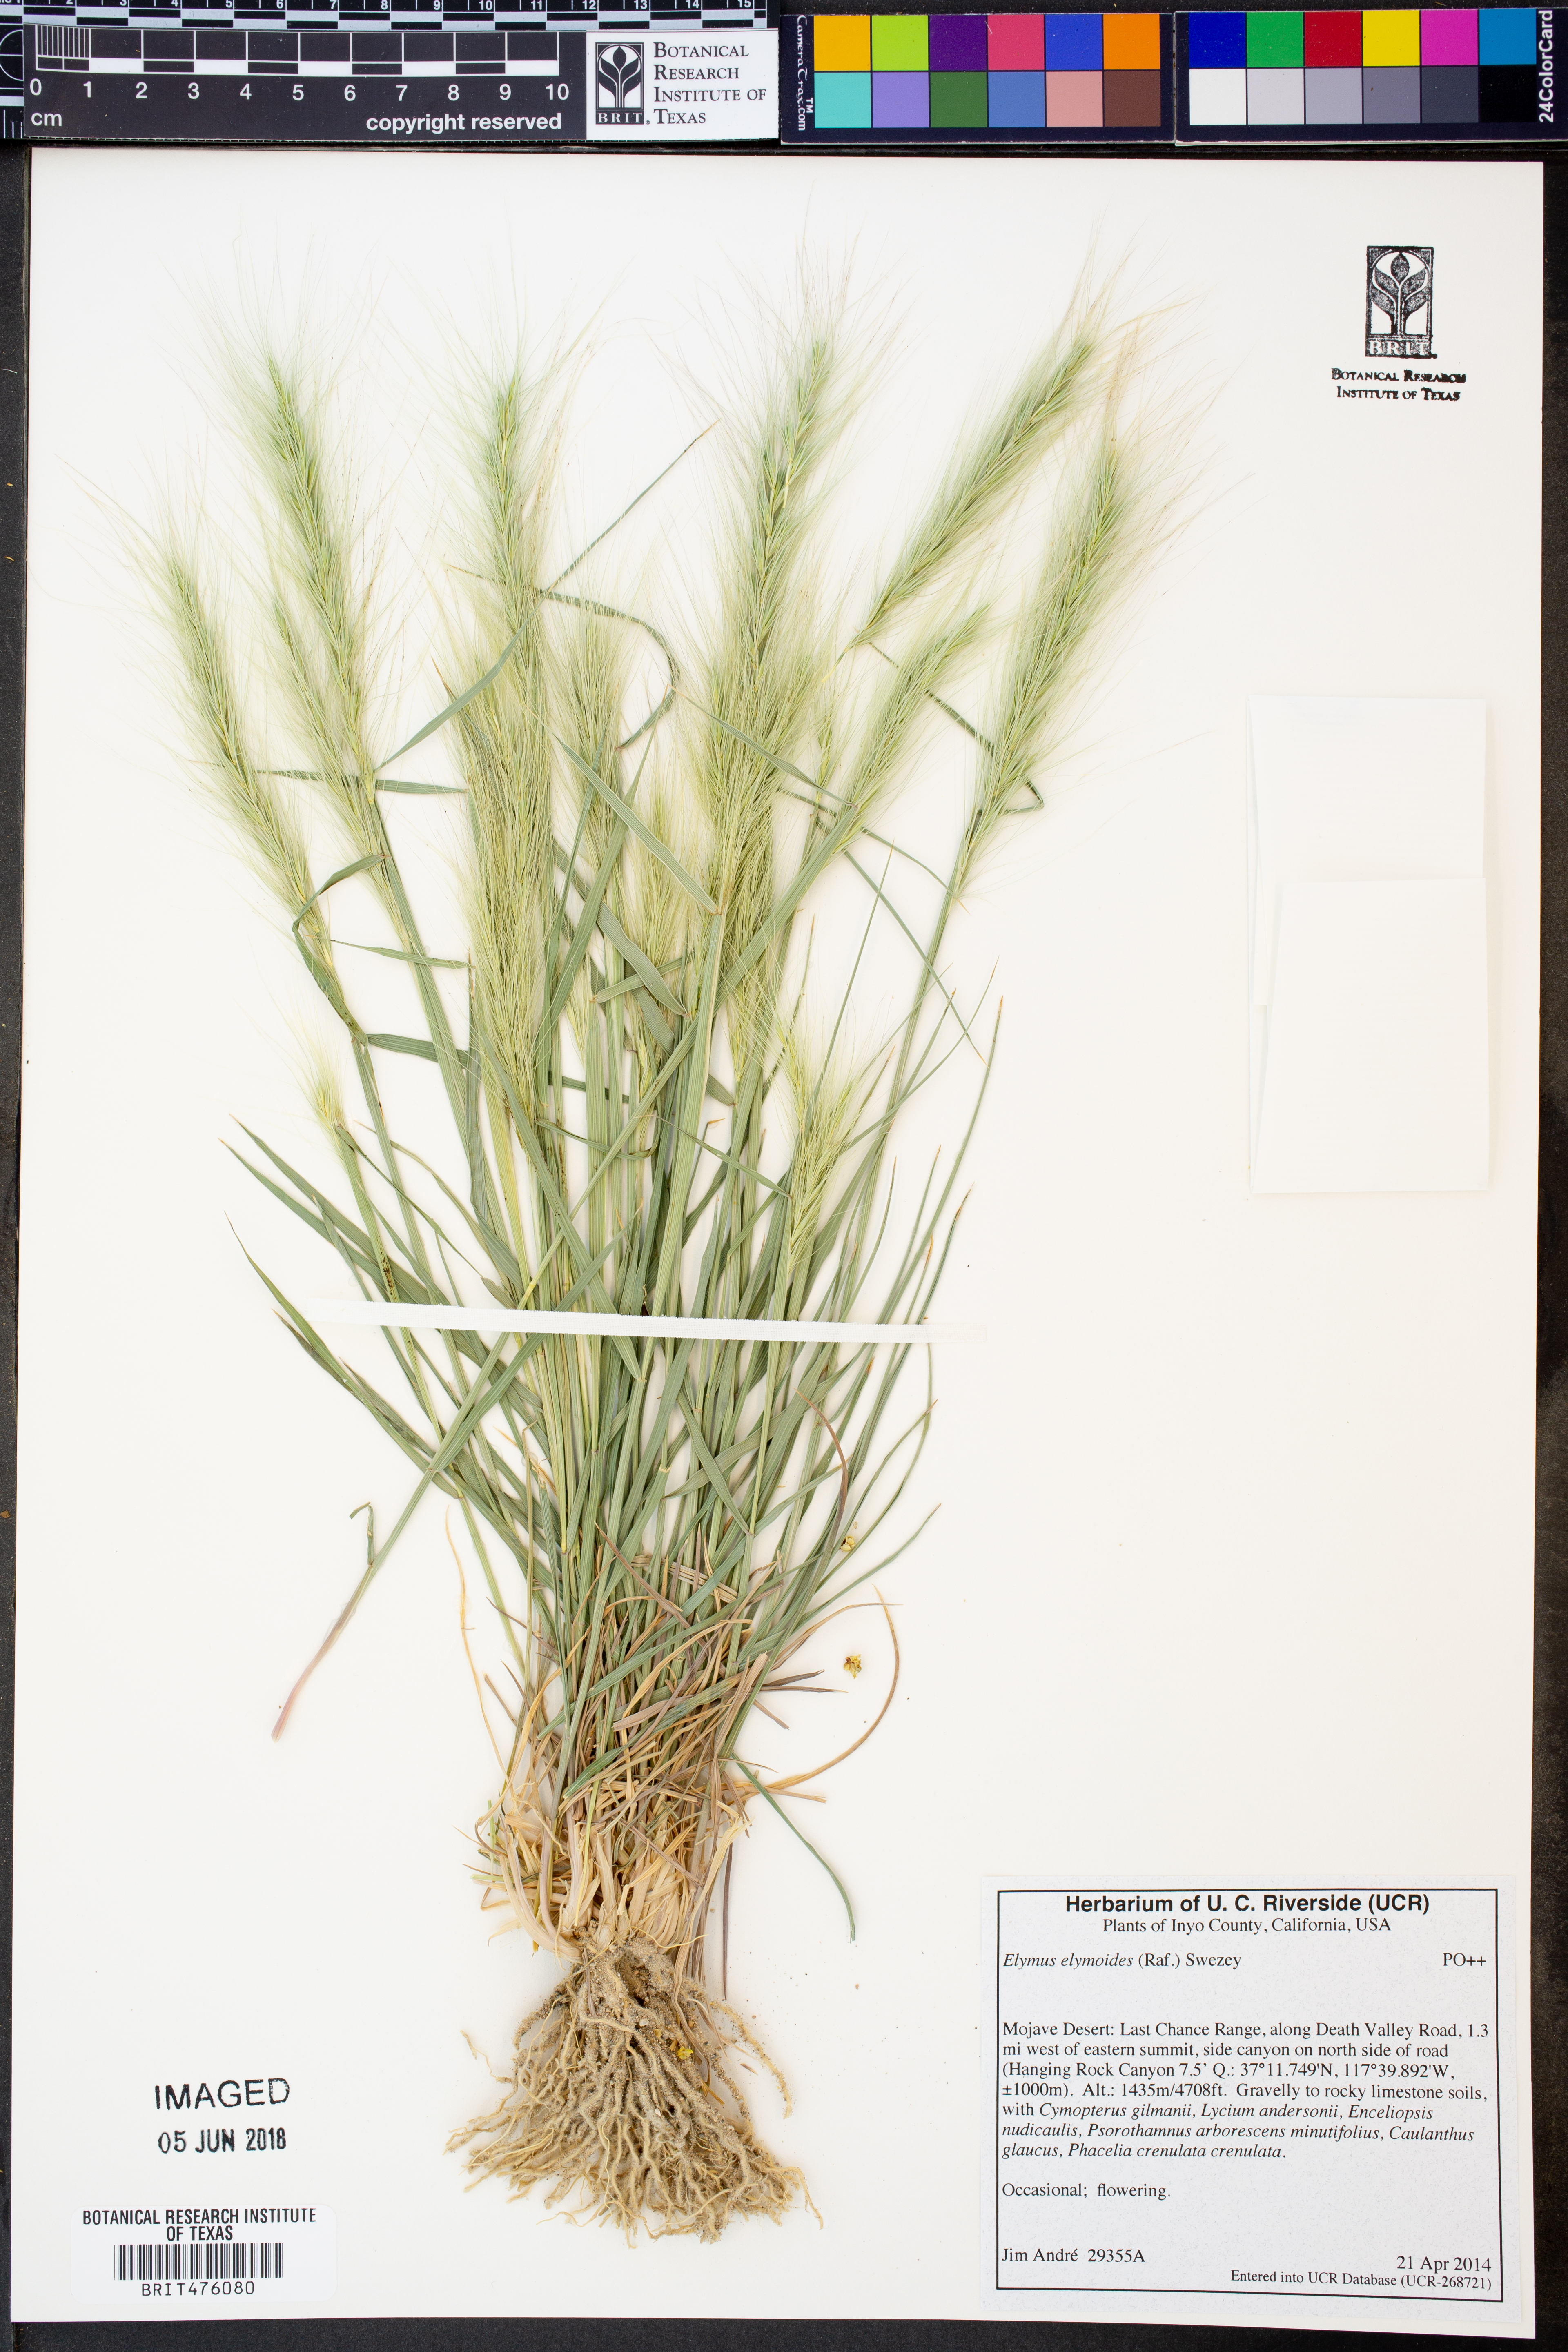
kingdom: Plantae
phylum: Tracheophyta
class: Liliopsida
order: Poales
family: Poaceae
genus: Elymus
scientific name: Elymus elymoides
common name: Bottlebrush squirreltail
